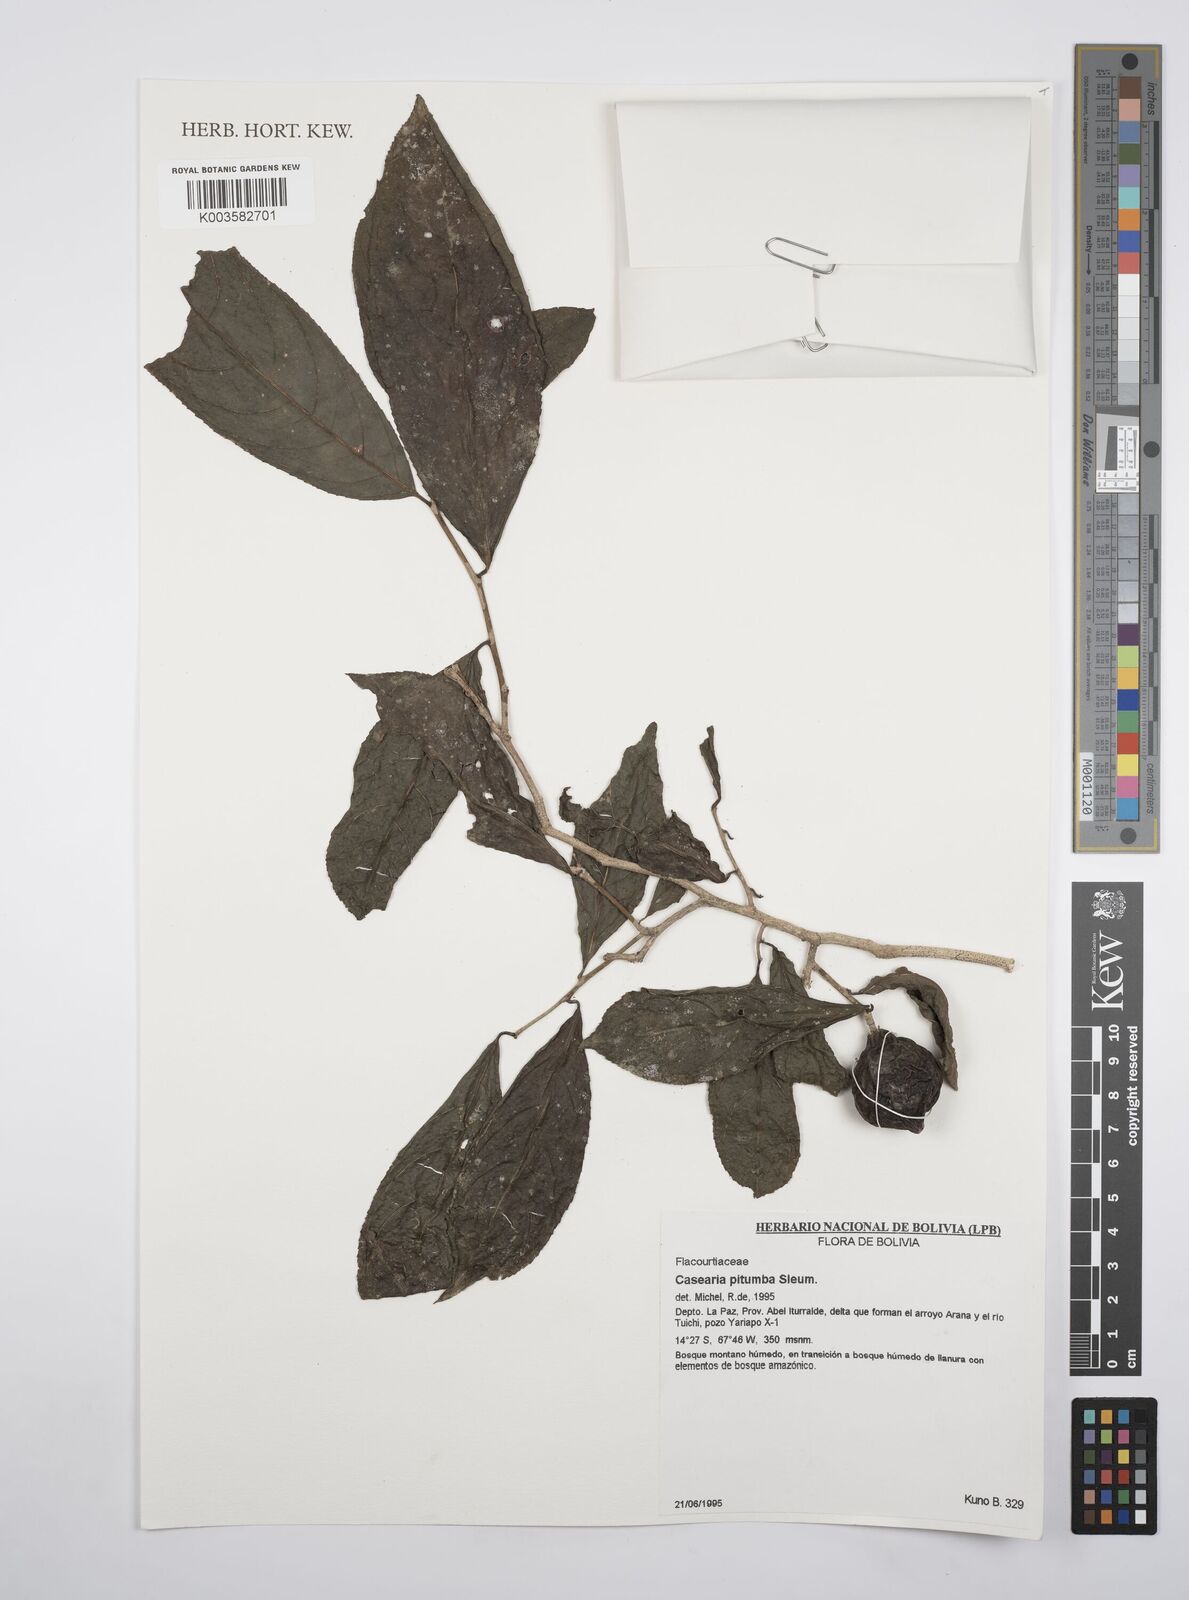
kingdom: Plantae
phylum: Tracheophyta
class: Magnoliopsida
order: Malpighiales
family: Salicaceae
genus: Casearia
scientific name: Casearia pitumba
